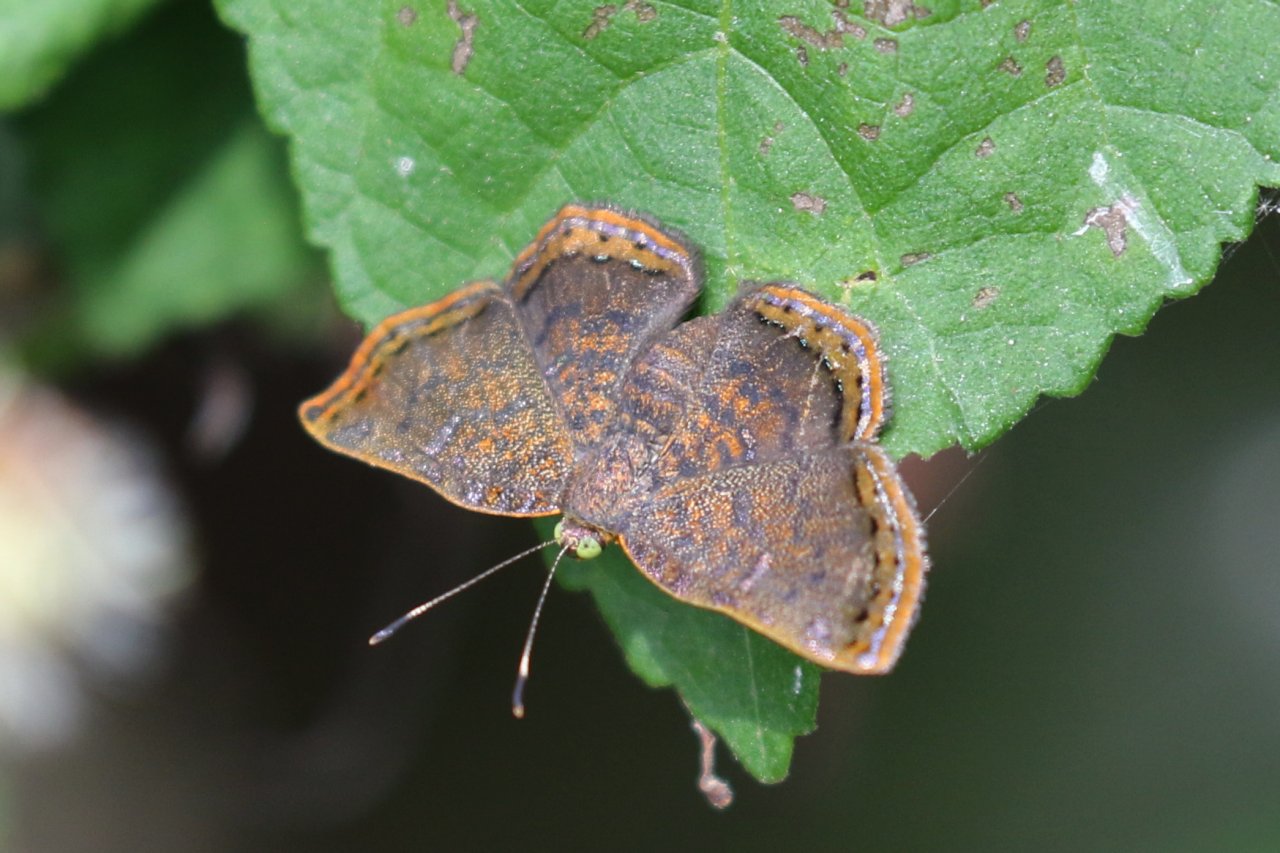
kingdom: Animalia
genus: Caria
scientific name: Caria ino
